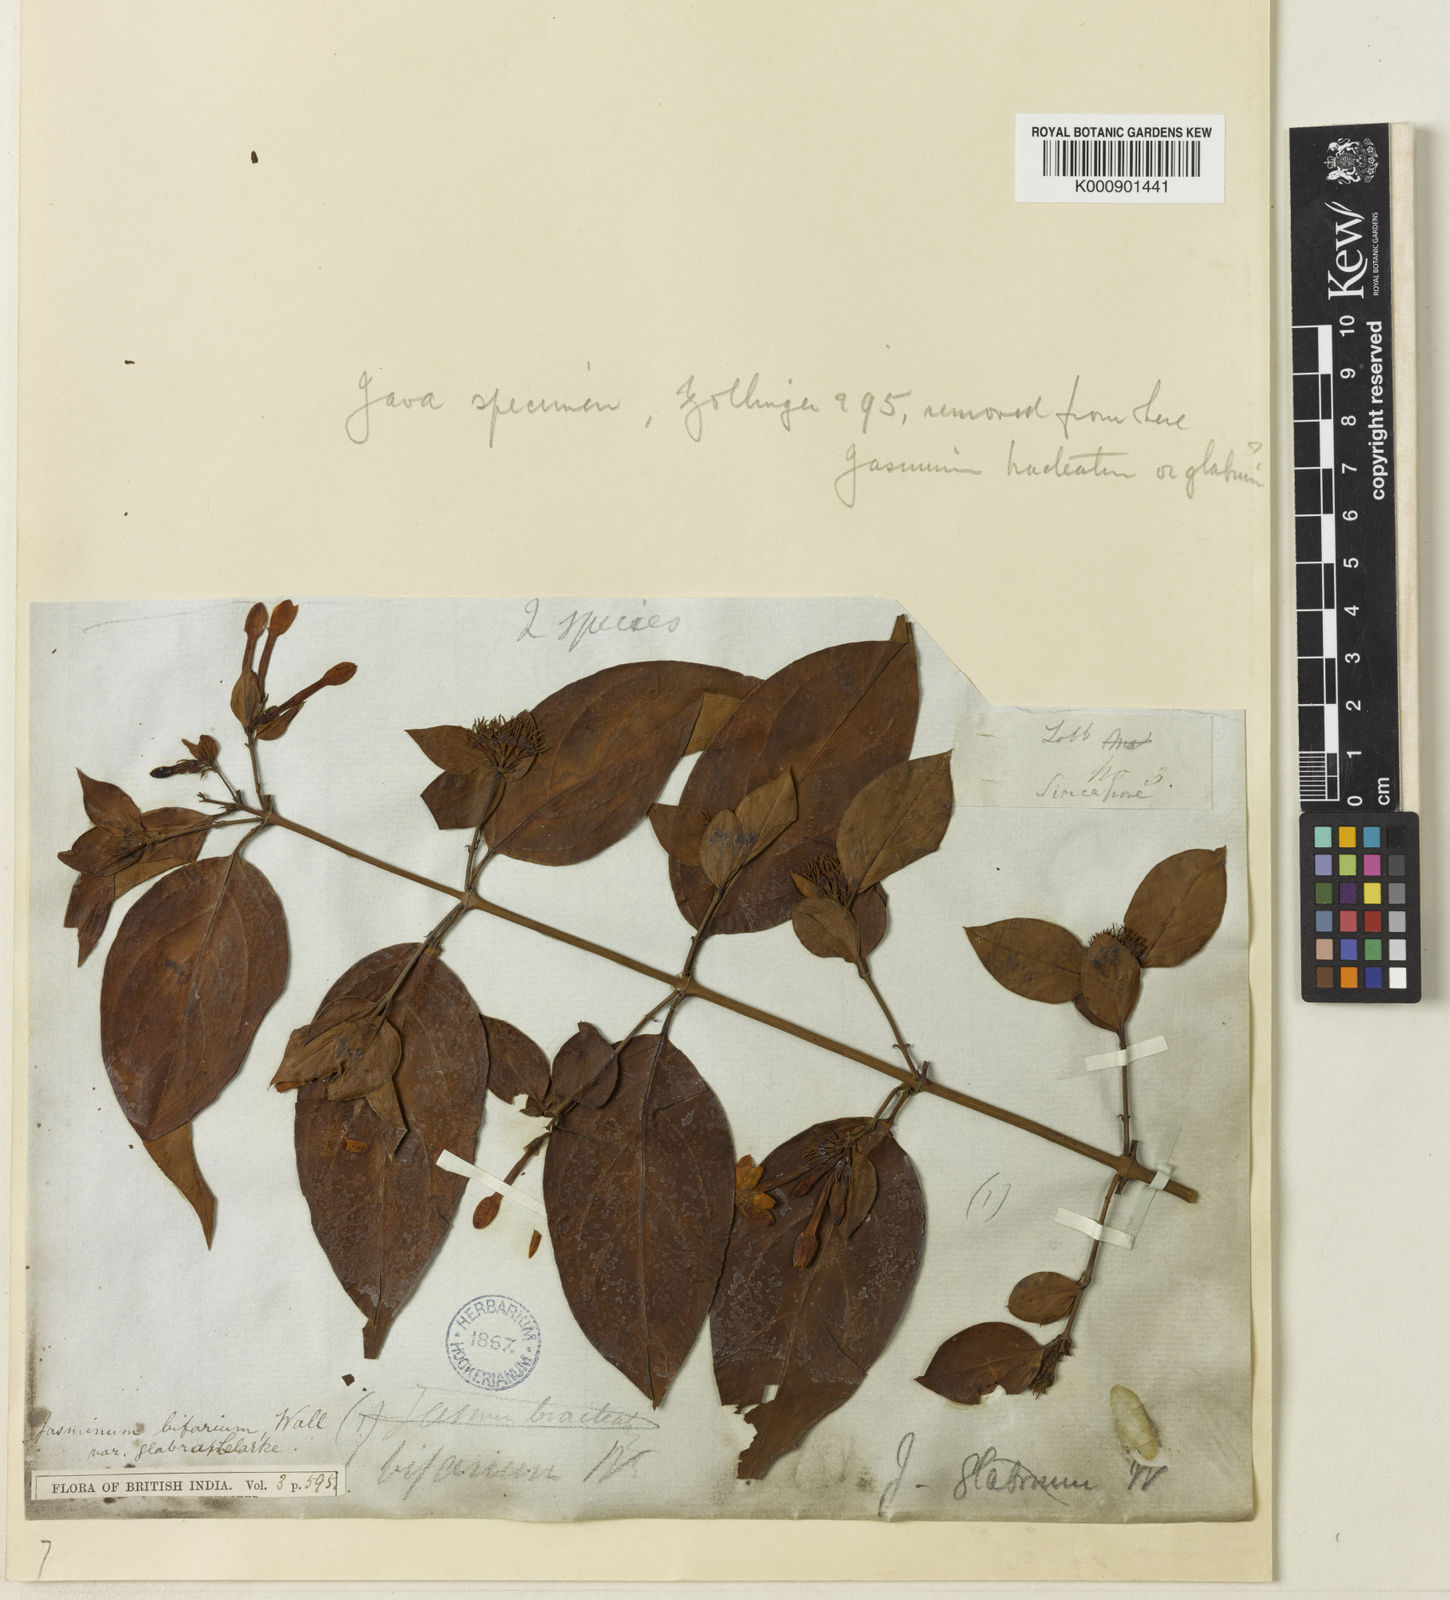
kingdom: Plantae
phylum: Tracheophyta
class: Magnoliopsida
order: Lamiales
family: Oleaceae
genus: Jasminum
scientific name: Jasminum elongatum
